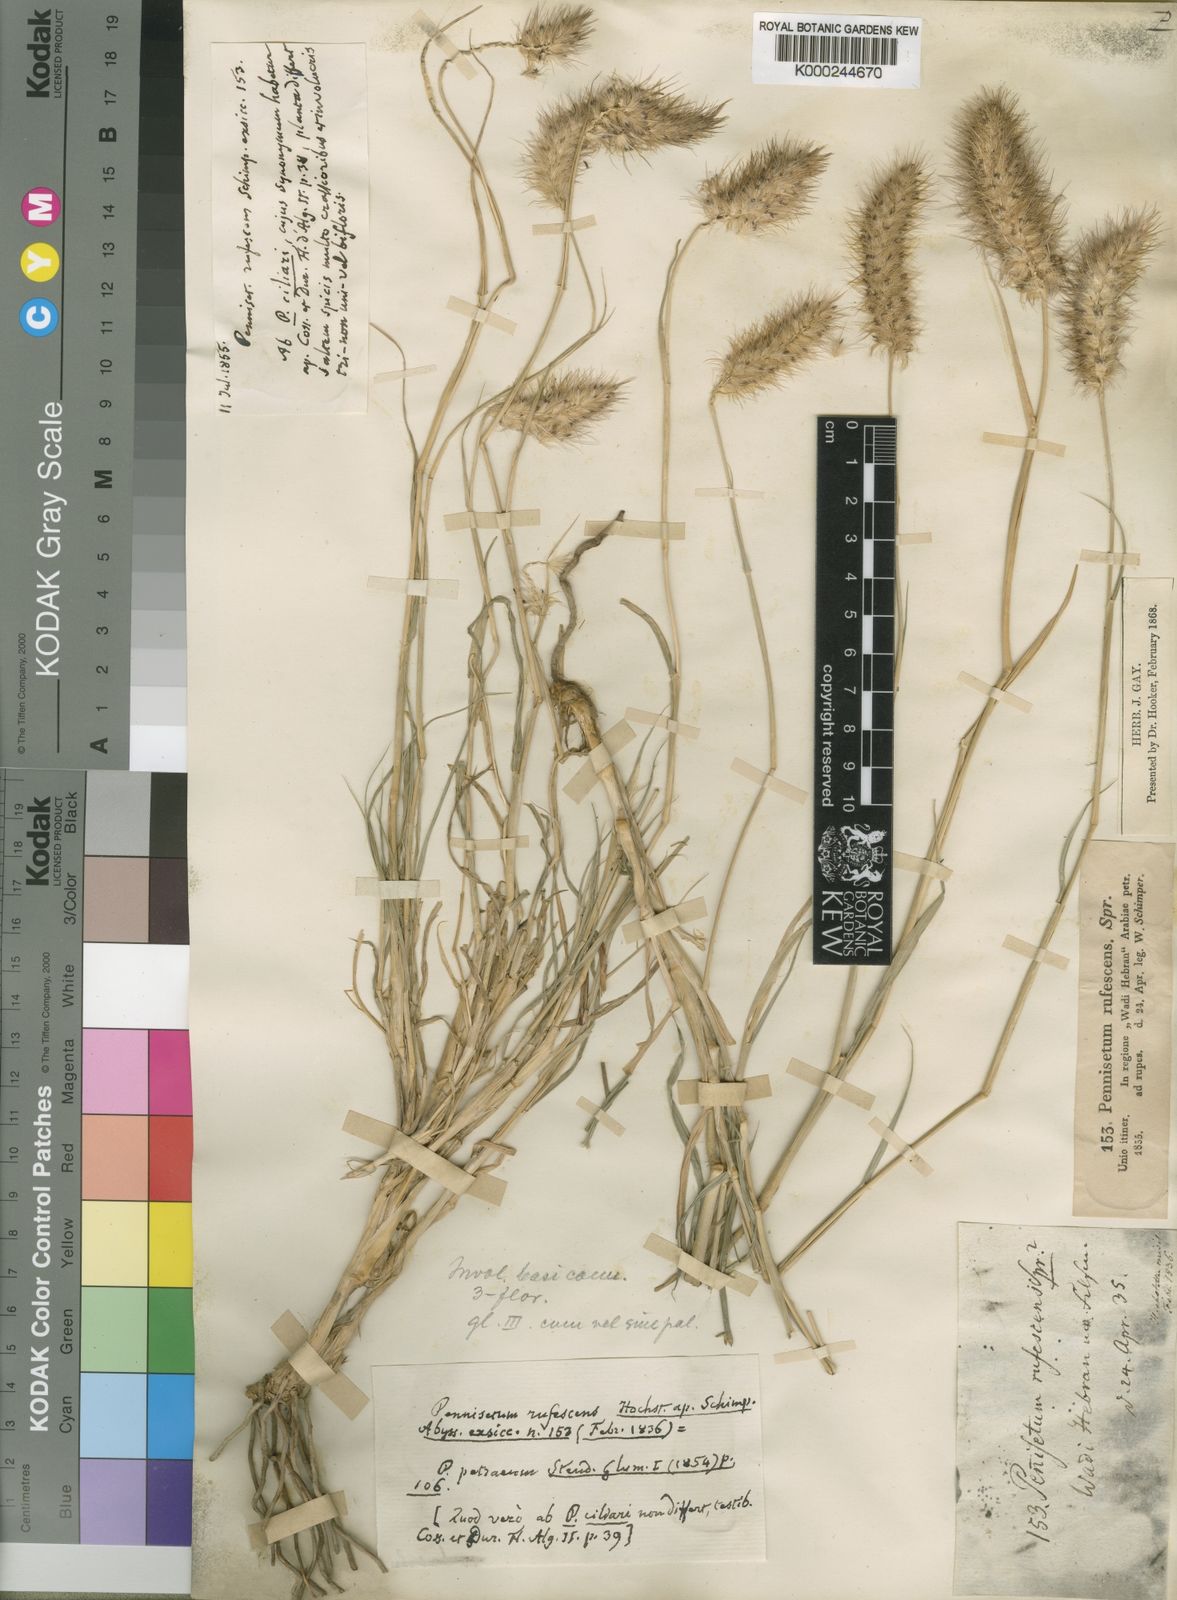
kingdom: Plantae
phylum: Tracheophyta
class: Liliopsida
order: Poales
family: Poaceae
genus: Cenchrus
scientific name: Cenchrus ciliaris
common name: Buffelgrass
